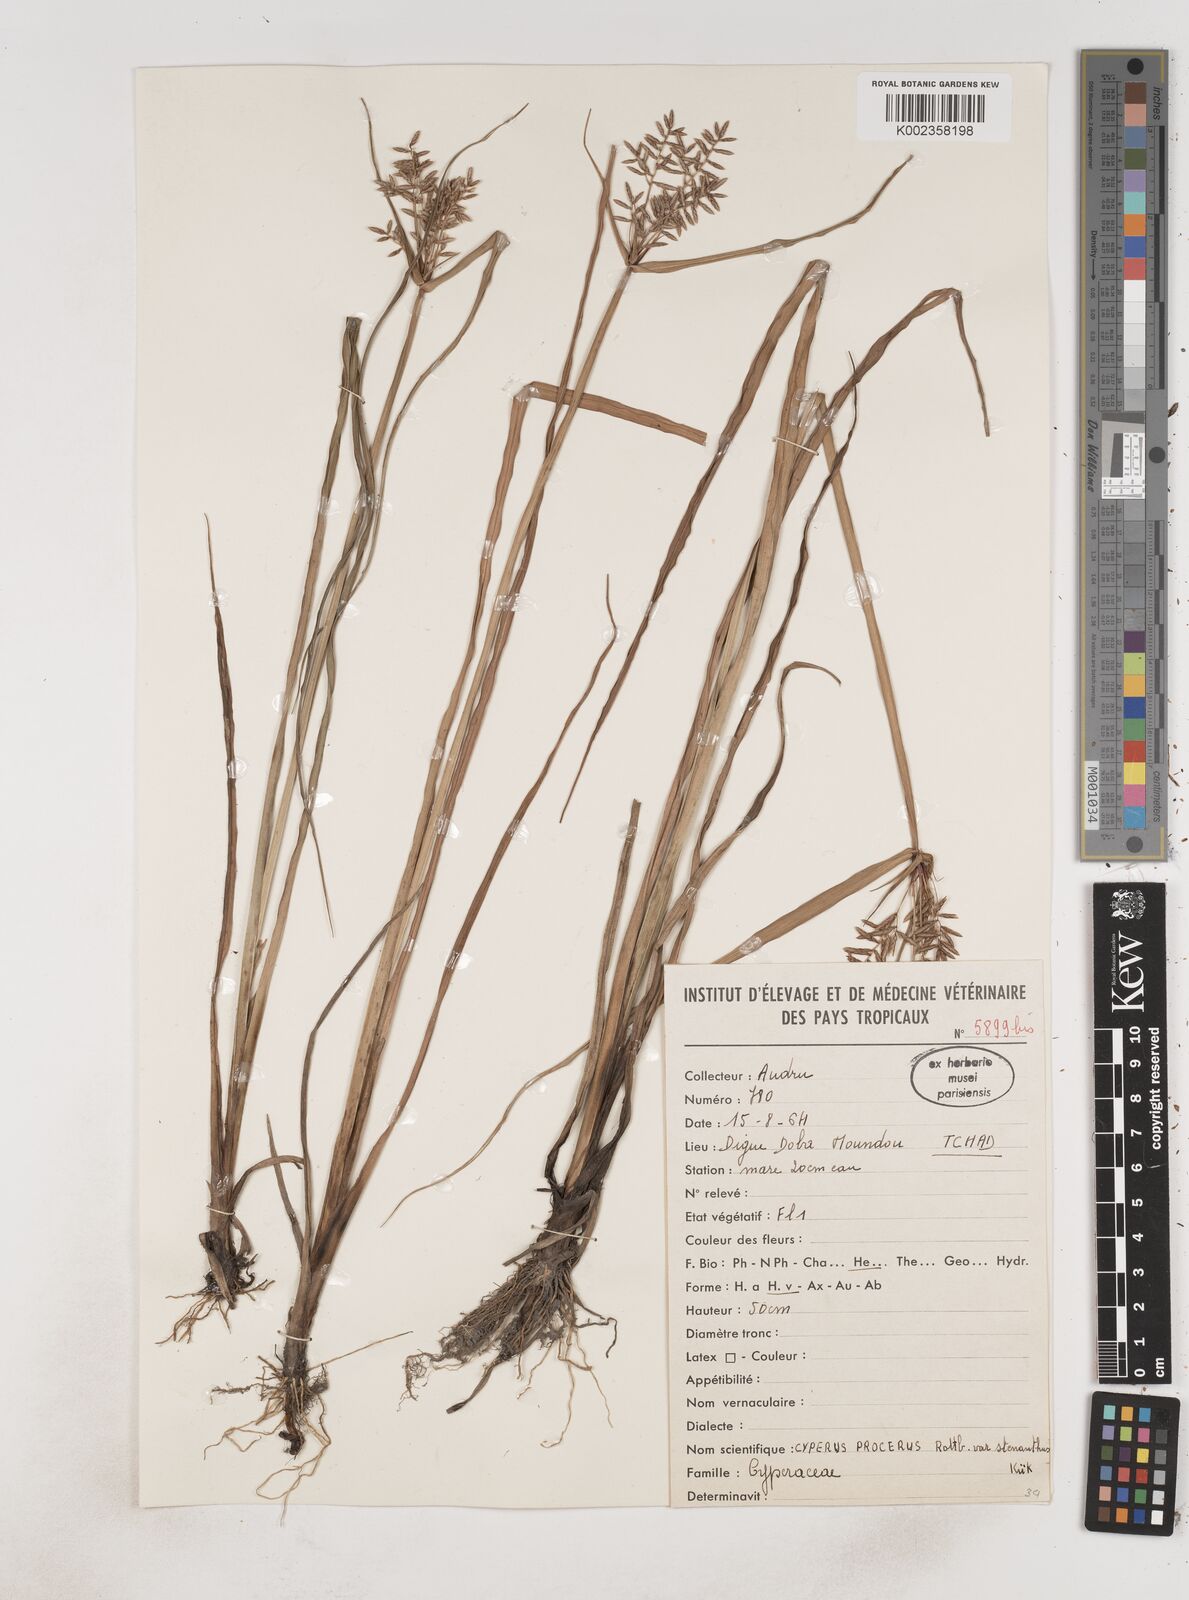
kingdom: Plantae
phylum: Tracheophyta
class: Liliopsida
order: Poales
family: Cyperaceae
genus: Cyperus
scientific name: Cyperus procerus
